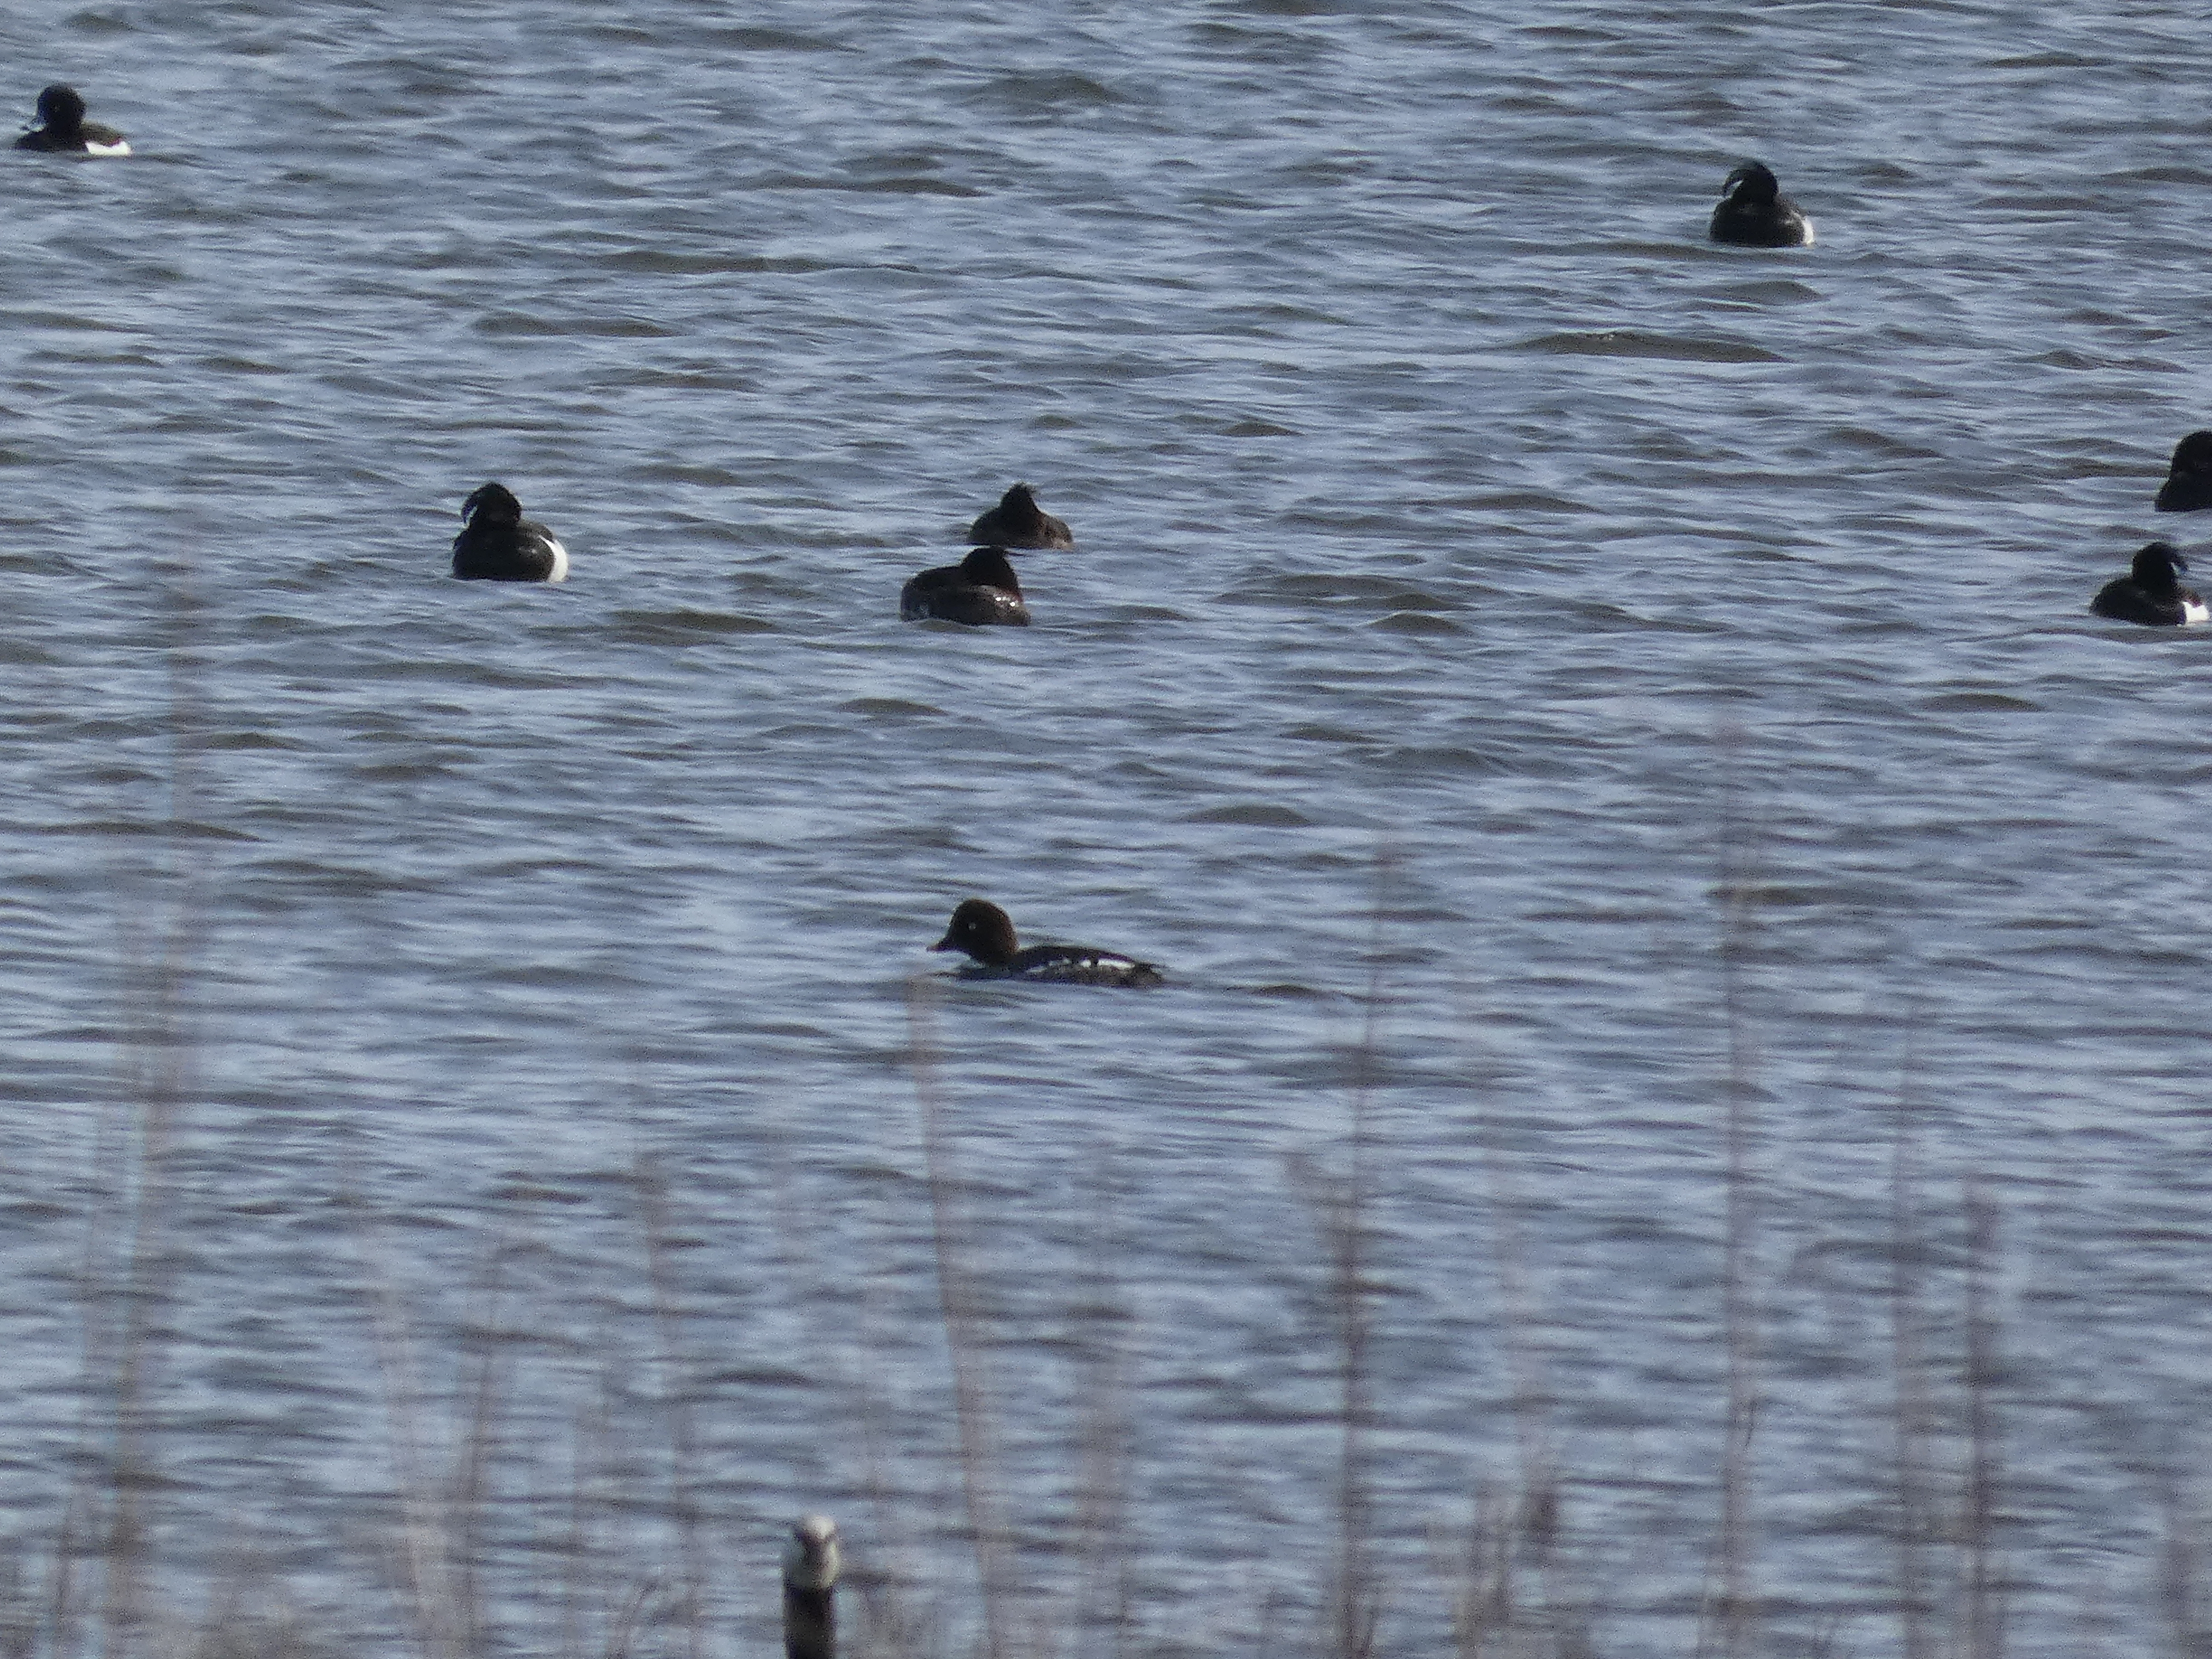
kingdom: Animalia
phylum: Chordata
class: Aves
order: Anseriformes
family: Anatidae
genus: Bucephala
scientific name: Bucephala clangula
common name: Hvinand
